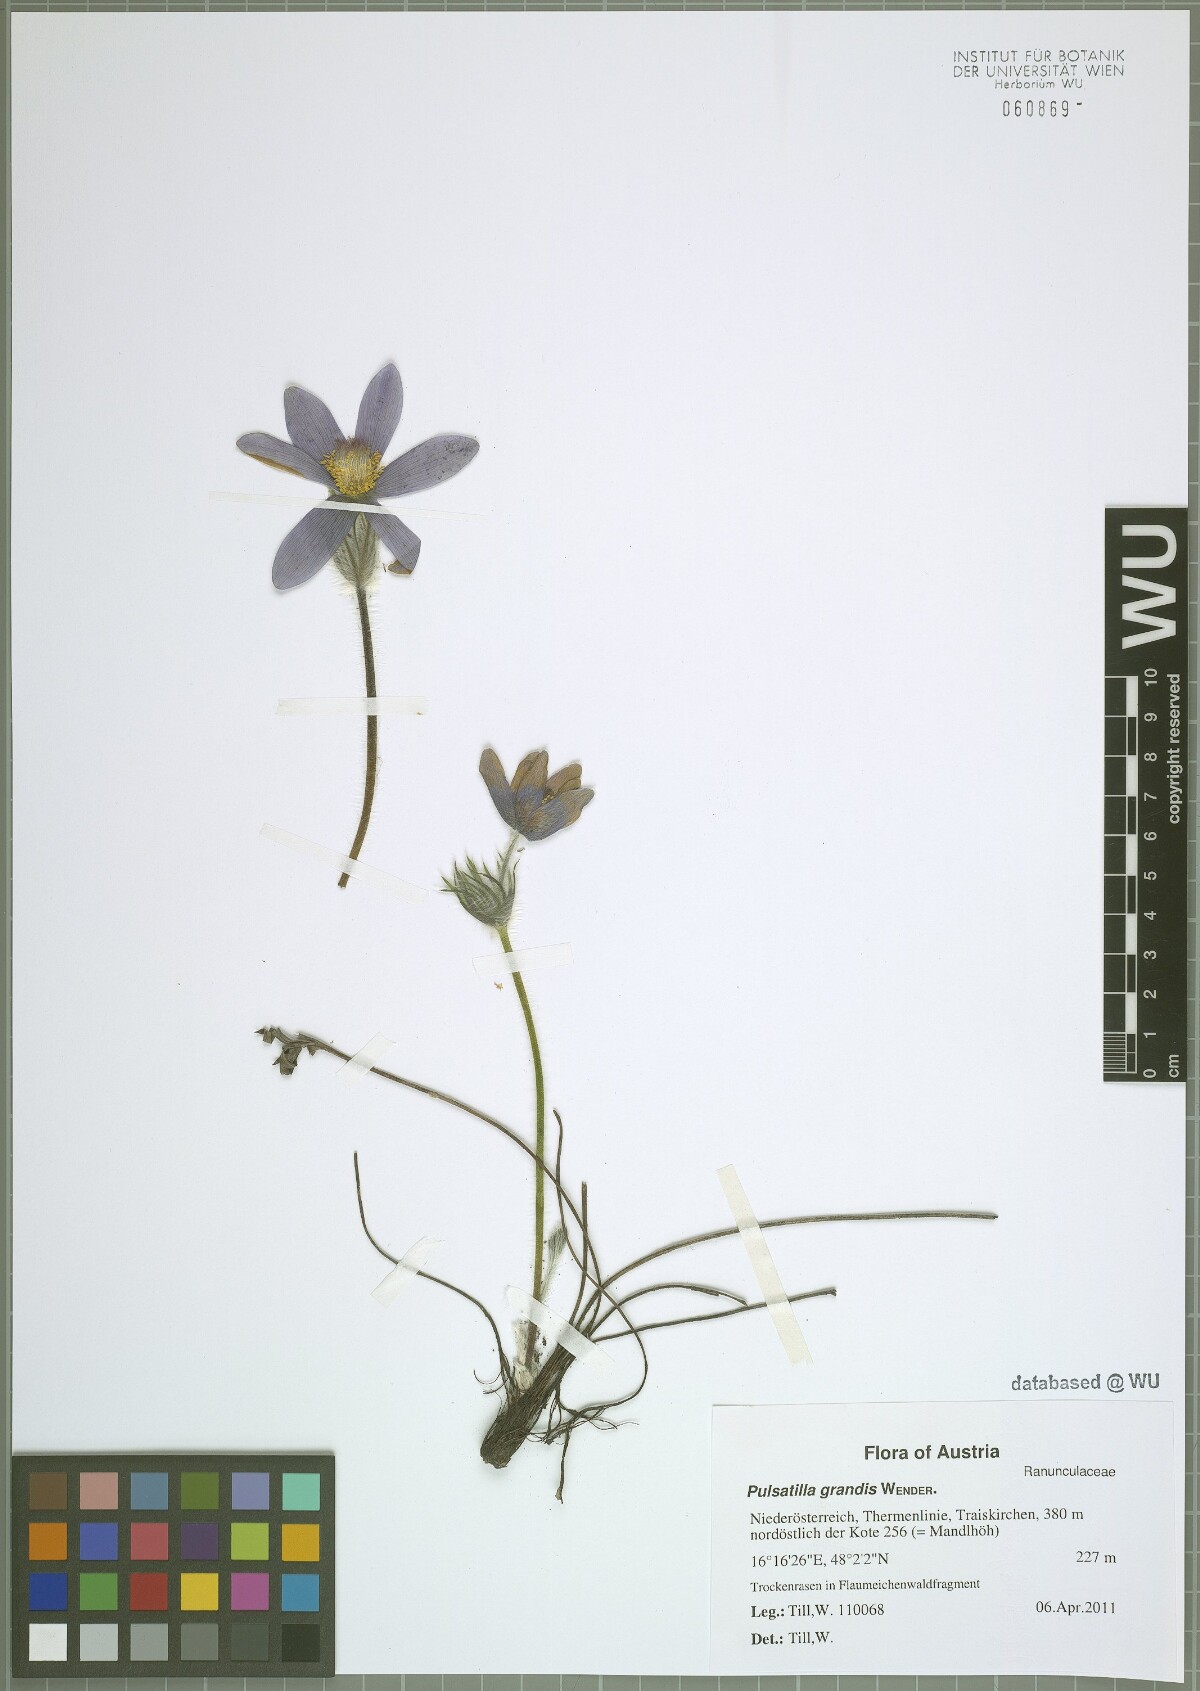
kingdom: Plantae
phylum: Tracheophyta
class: Magnoliopsida
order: Ranunculales
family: Ranunculaceae
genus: Pulsatilla
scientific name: Pulsatilla grandis
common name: Greater pasque flower
